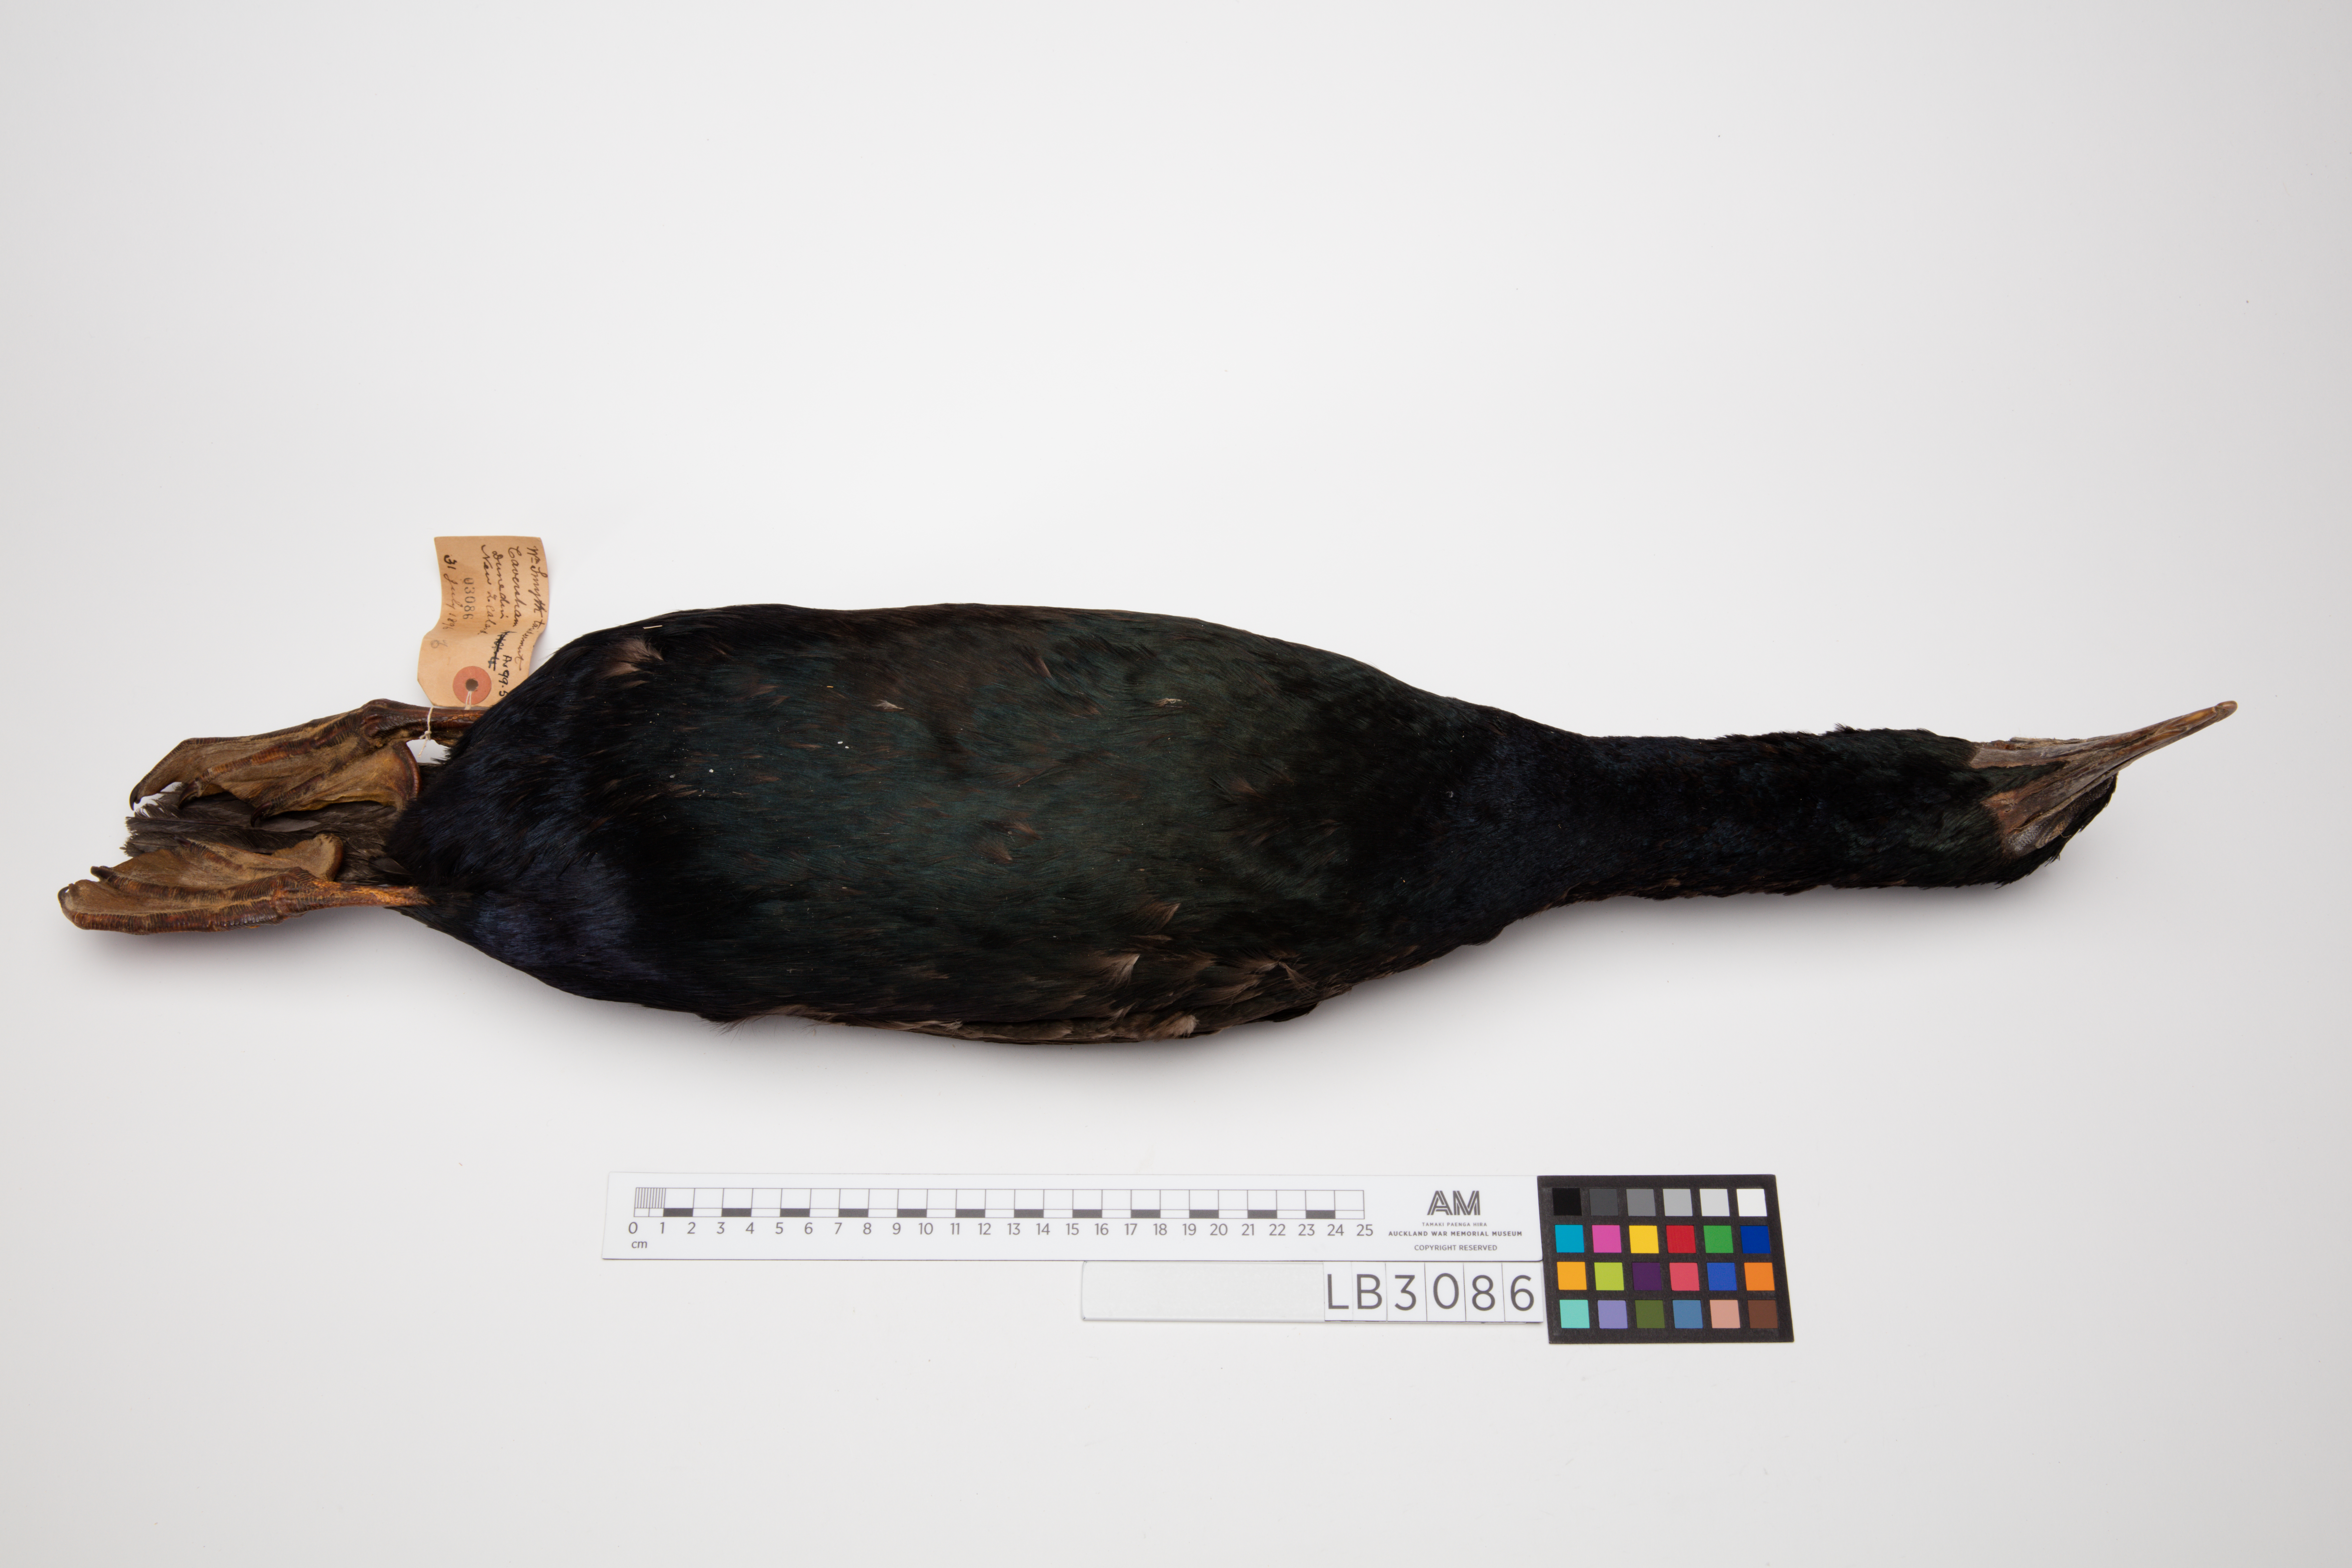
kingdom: Animalia
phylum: Chordata
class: Aves
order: Suliformes
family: Phalacrocoracidae
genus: Leucocarbo
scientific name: Leucocarbo chalconotus
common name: Stewart shag
